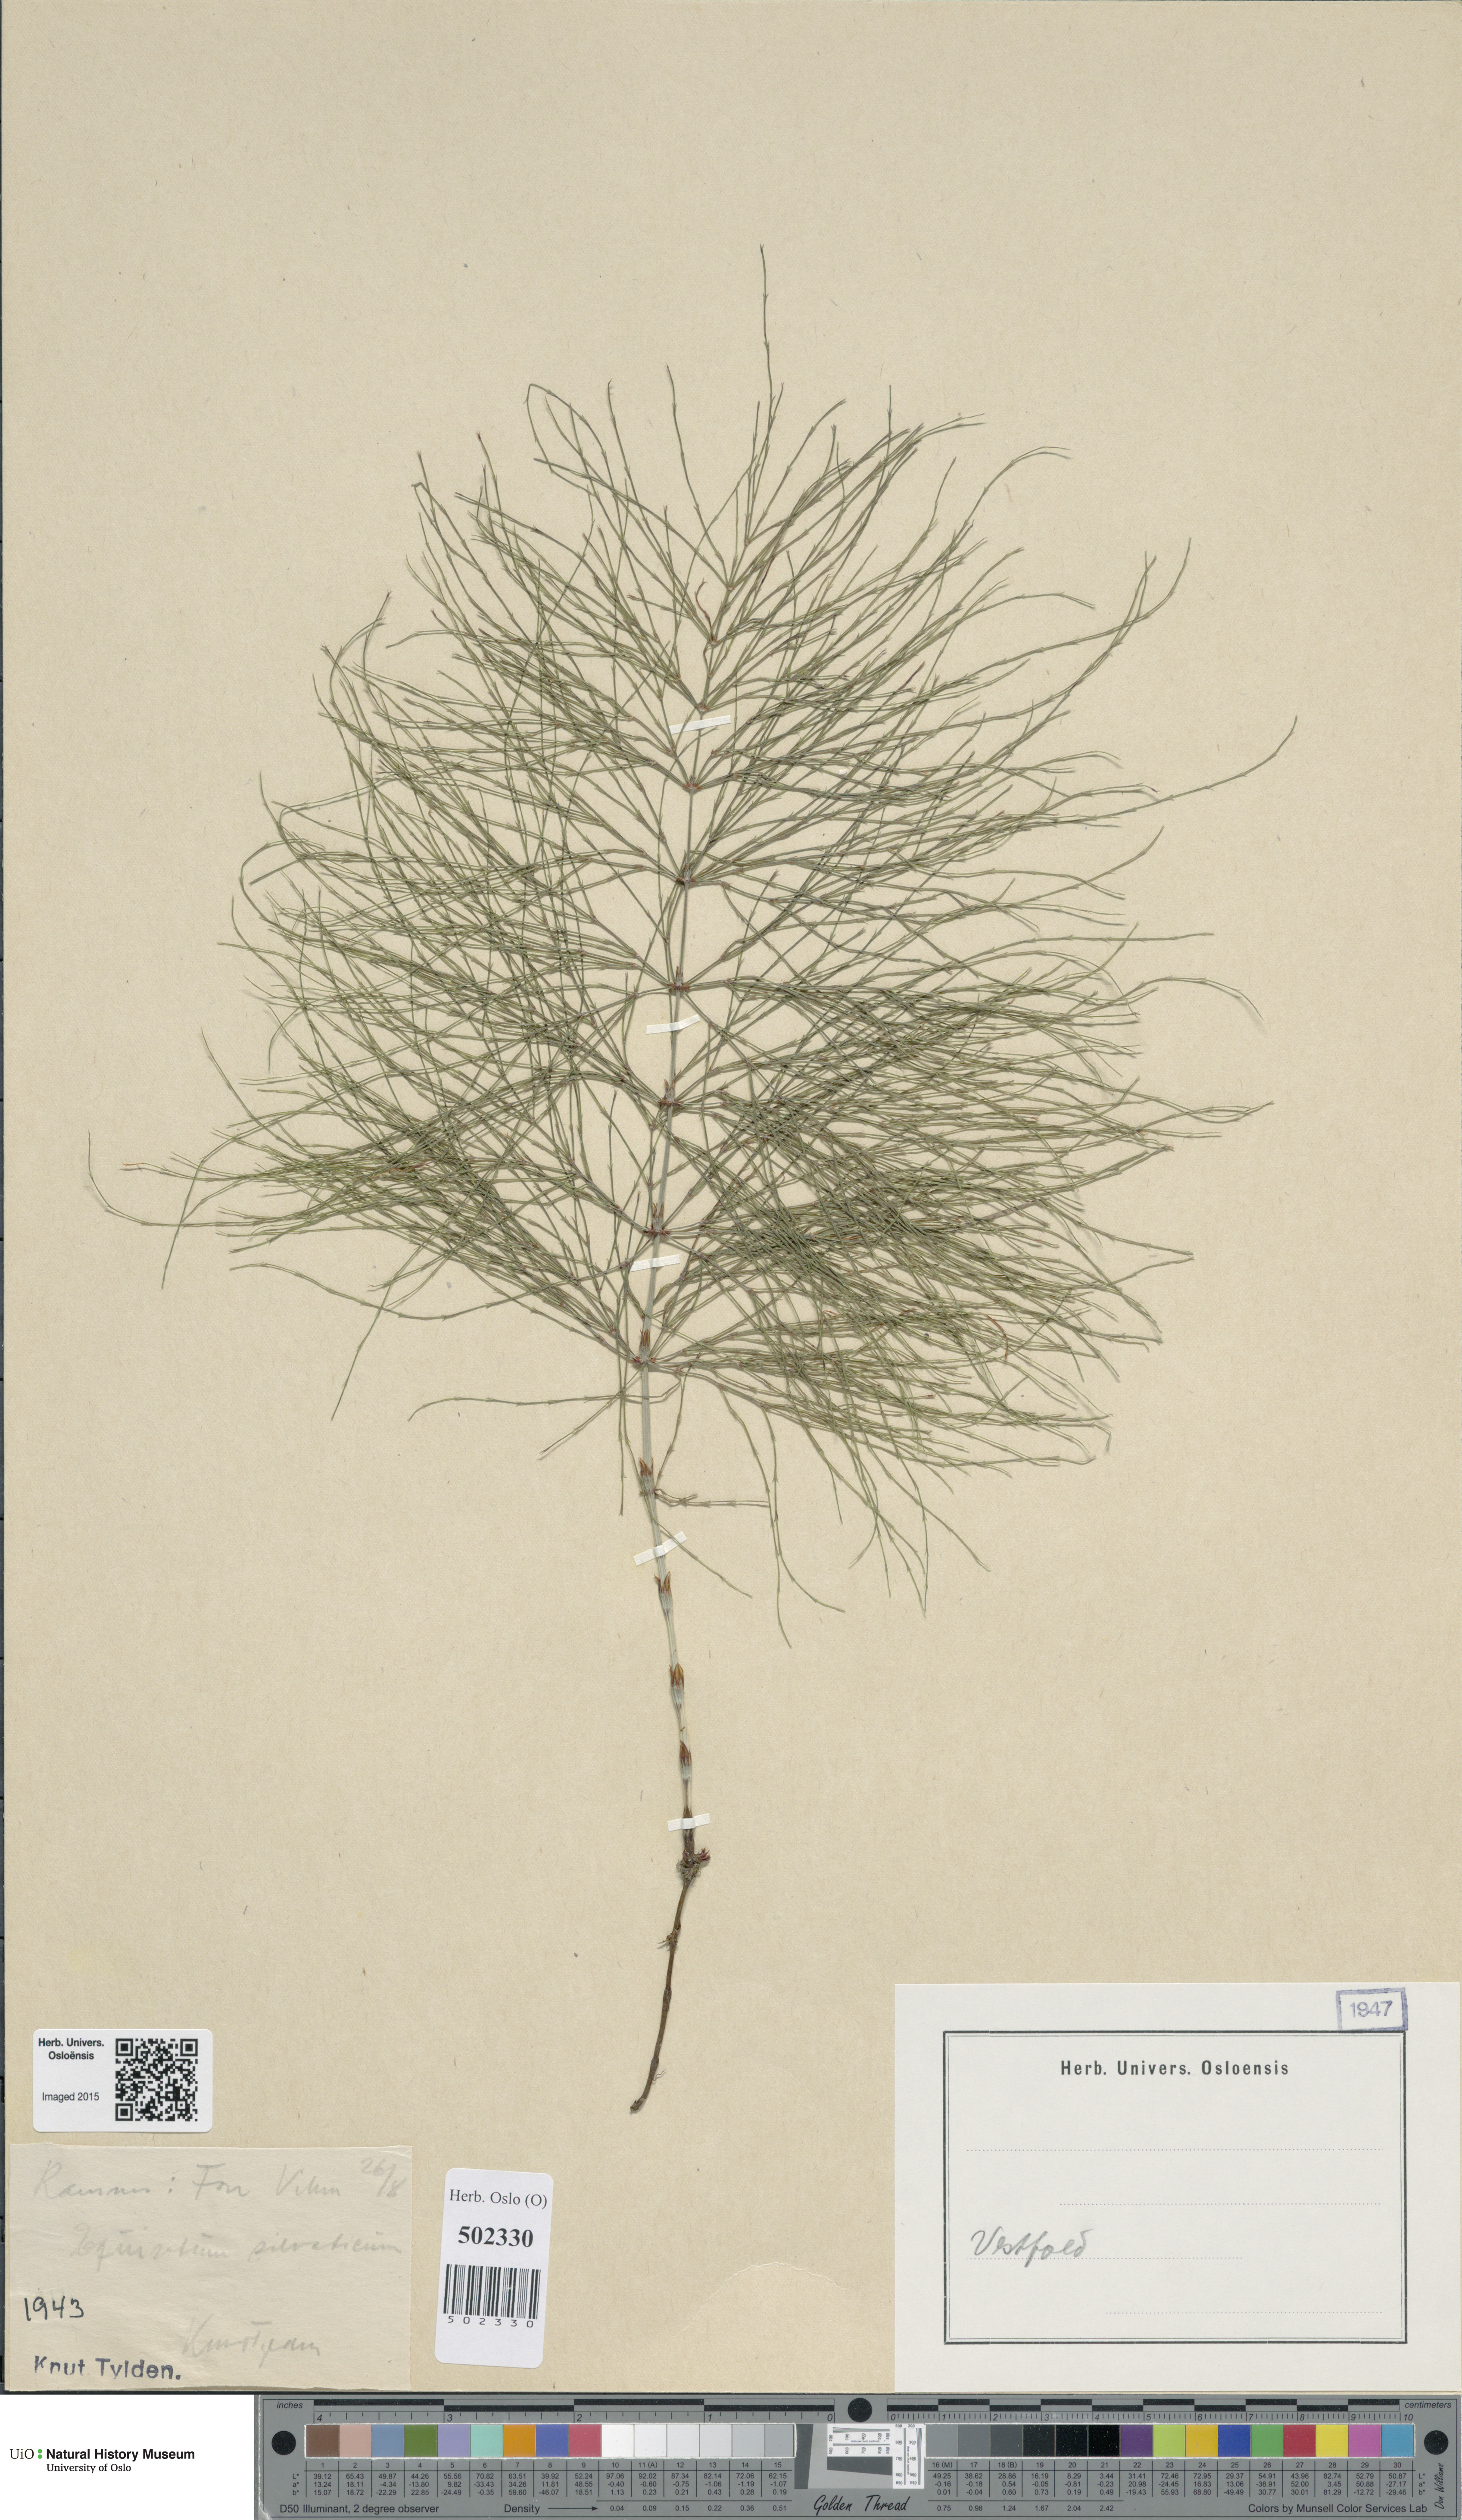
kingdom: Plantae
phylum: Tracheophyta
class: Polypodiopsida
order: Equisetales
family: Equisetaceae
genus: Equisetum
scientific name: Equisetum sylvaticum
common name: Wood horsetail
